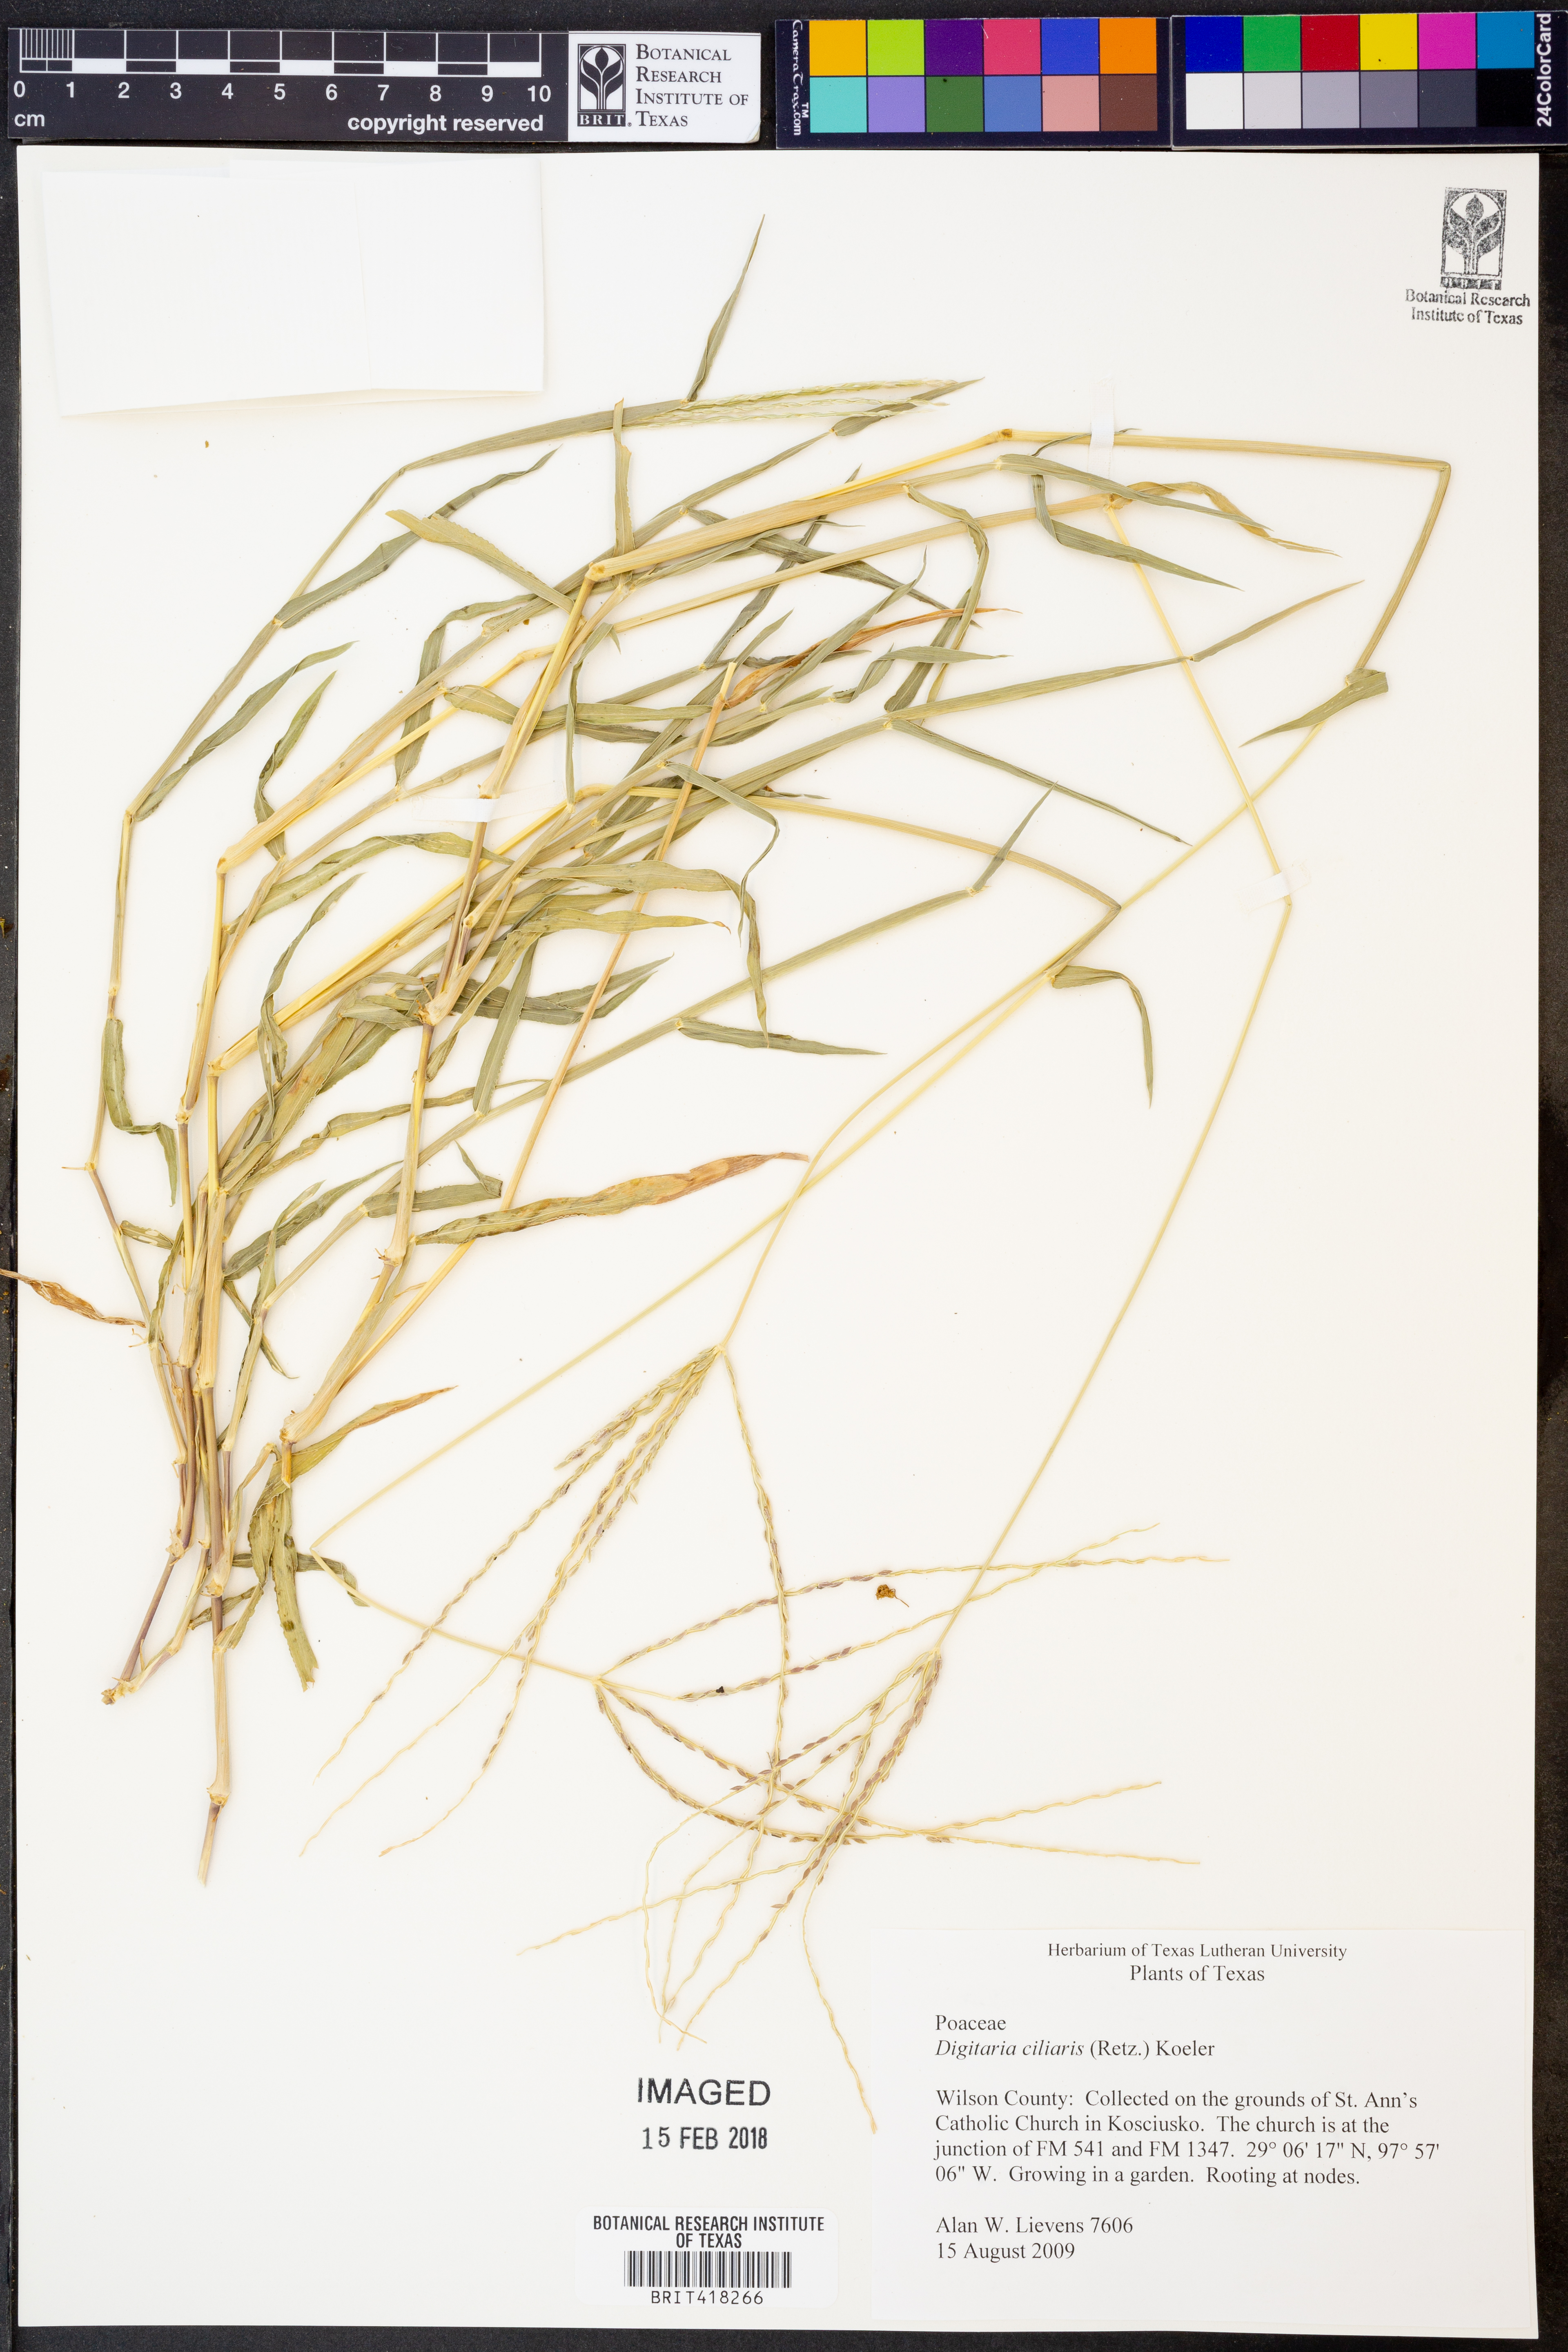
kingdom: Plantae
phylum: Tracheophyta
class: Liliopsida
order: Poales
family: Poaceae
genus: Digitaria
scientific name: Digitaria ciliaris
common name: Tropical finger-grass
